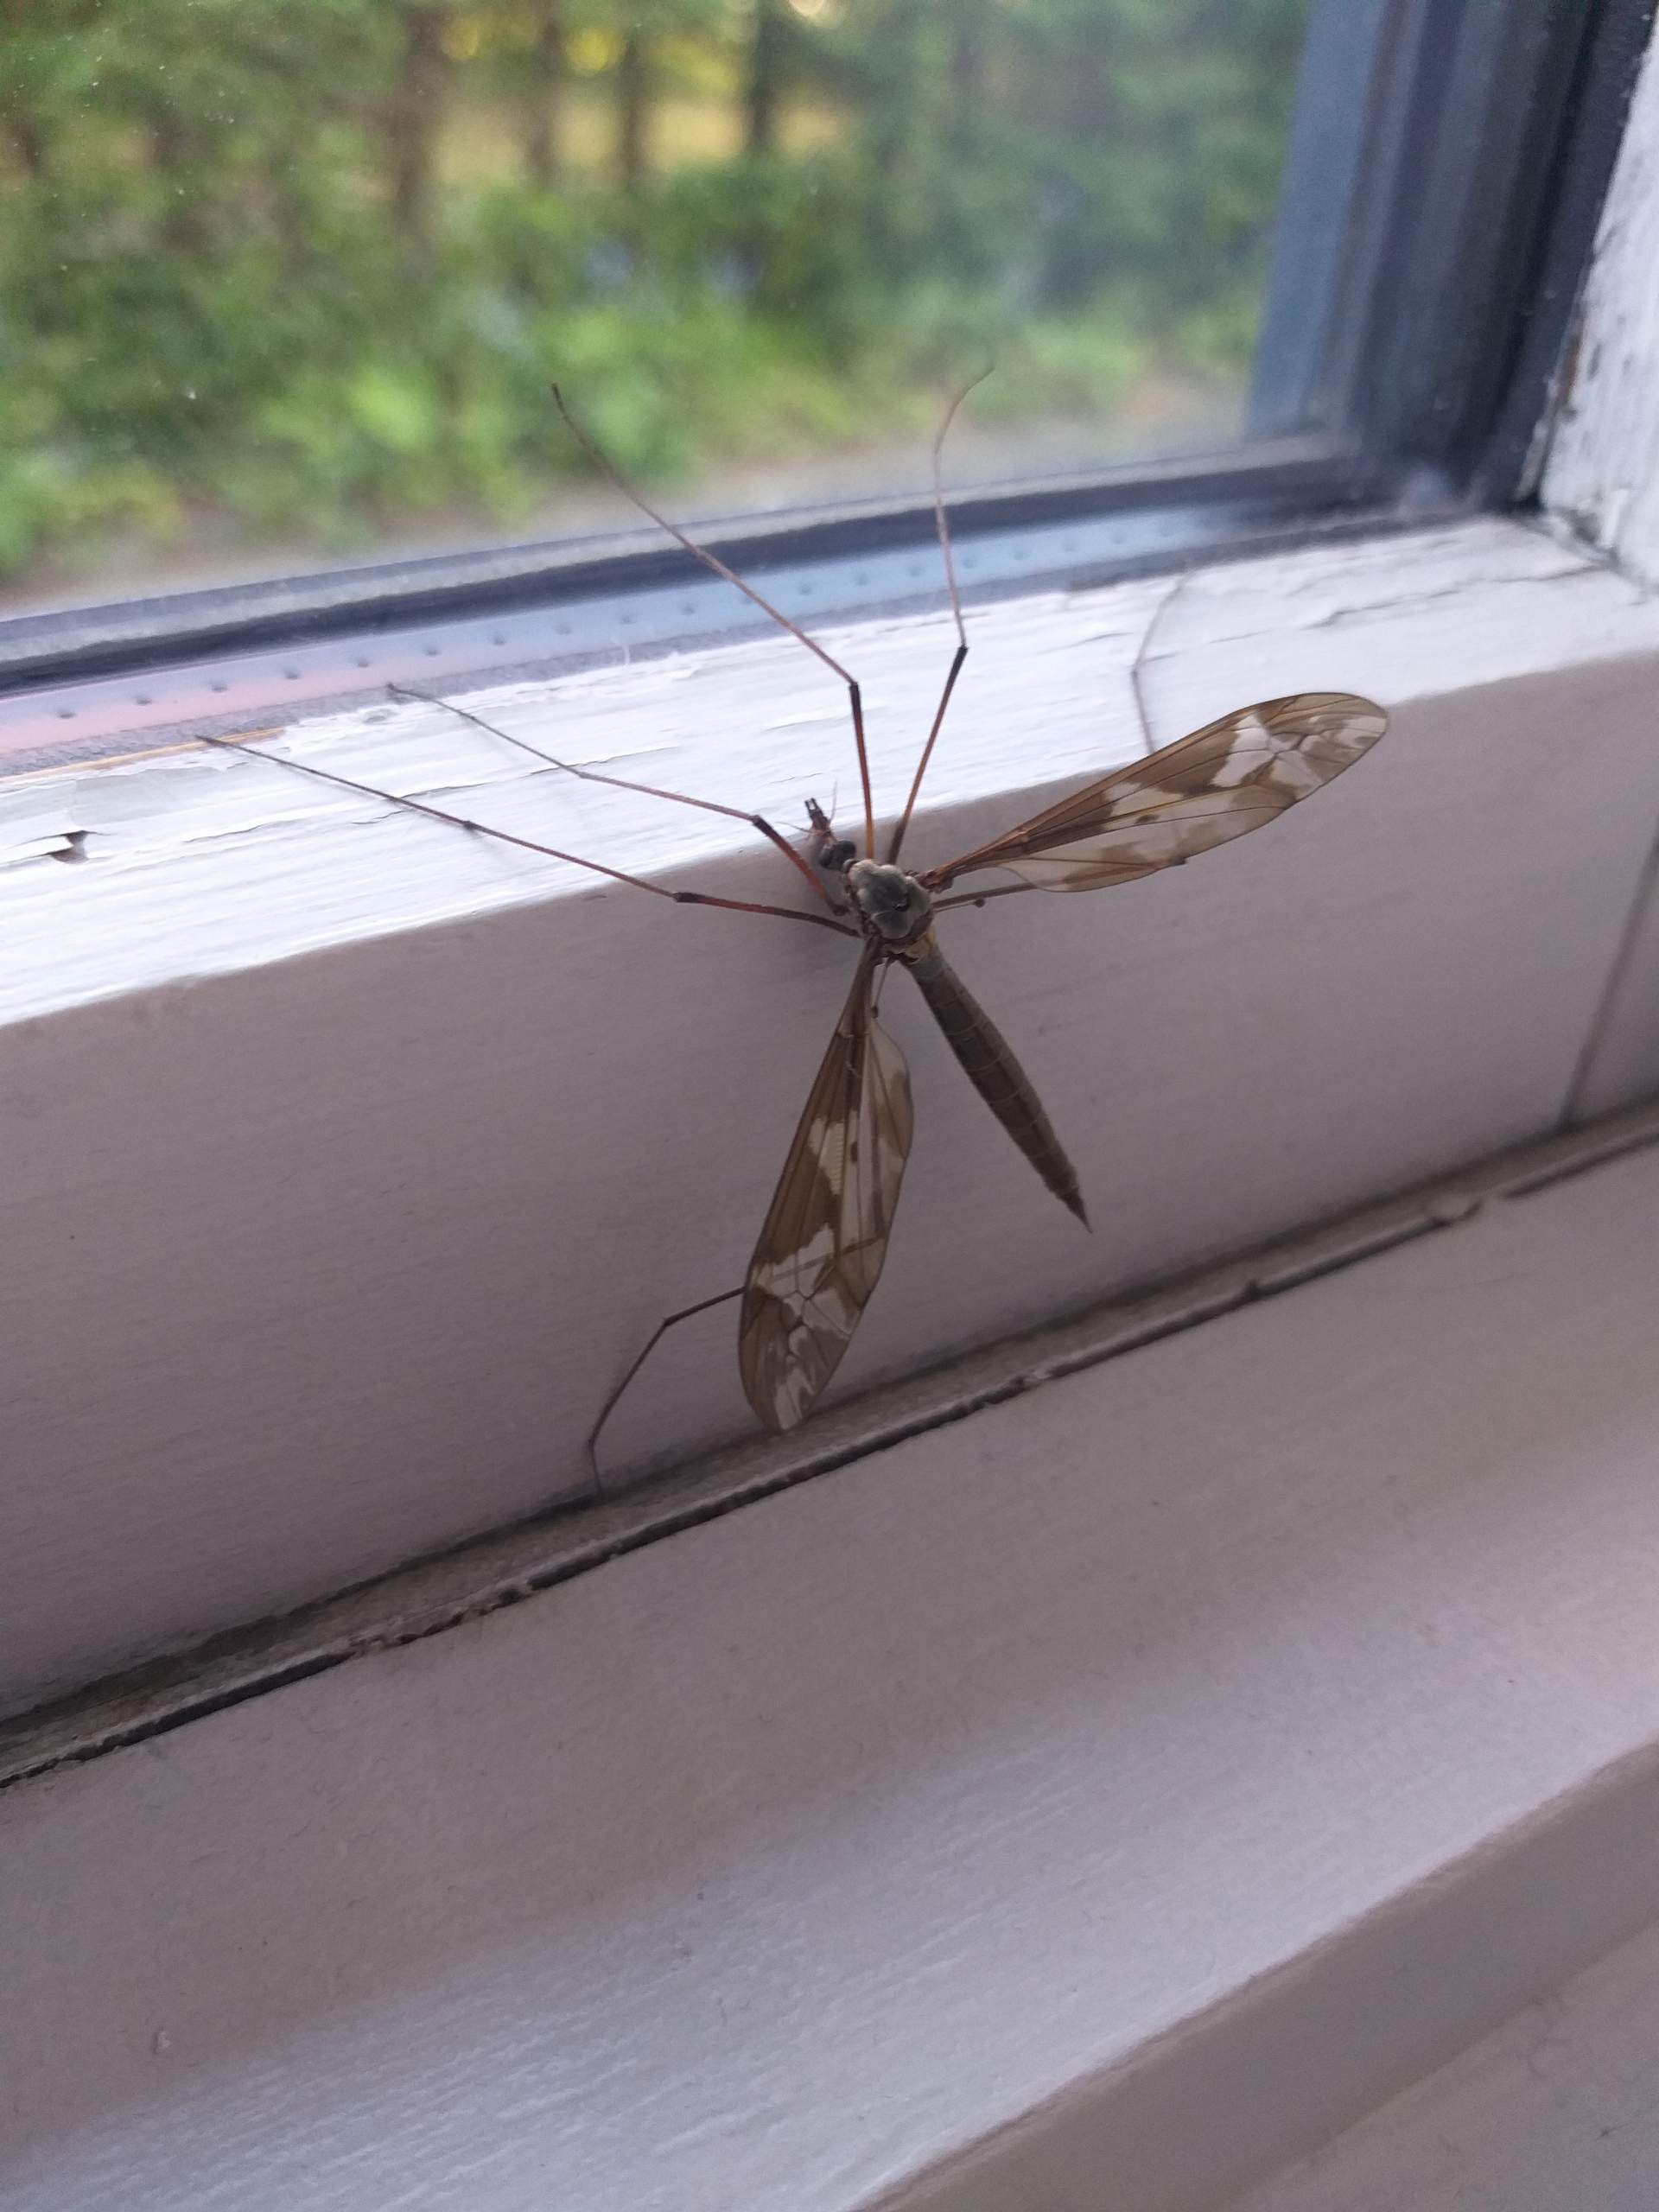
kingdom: Animalia
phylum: Arthropoda
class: Insecta
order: Diptera
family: Tipulidae
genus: Tipula
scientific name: Tipula maxima
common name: Kæmpestankelben
